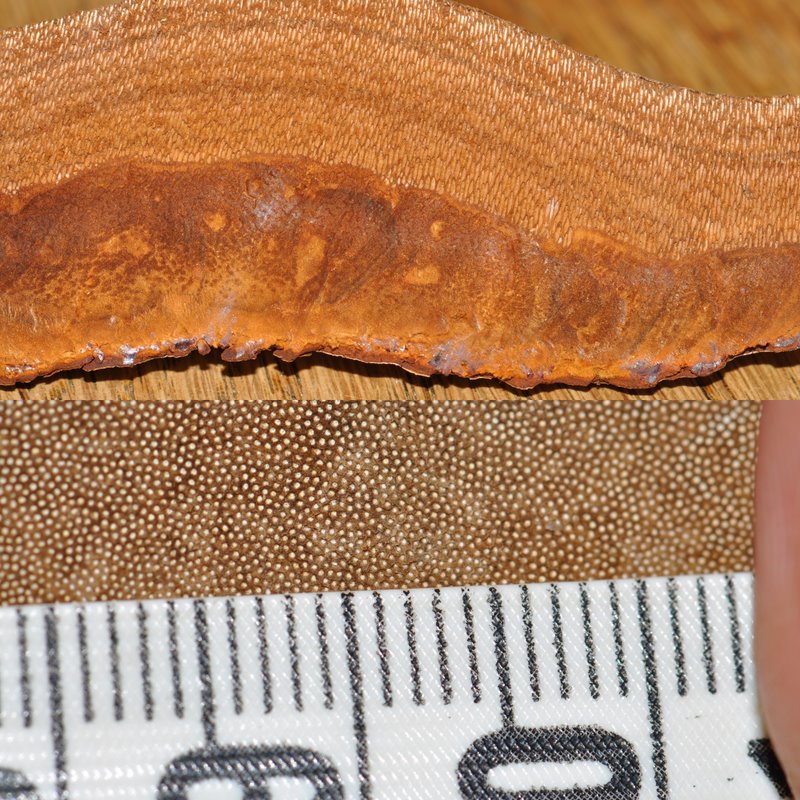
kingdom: Fungi
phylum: Basidiomycota
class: Agaricomycetes
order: Polyporales
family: Polyporaceae
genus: Fomes
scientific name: Fomes fomentarius
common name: tøndersvamp
